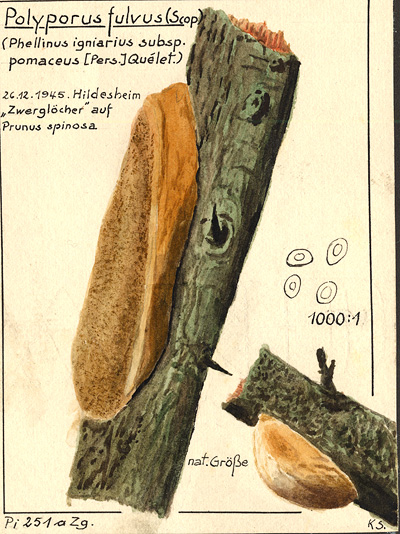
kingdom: Fungi
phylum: Basidiomycota
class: Agaricomycetes
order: Polyporales
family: Polyporaceae
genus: Fomes
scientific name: Fomes fulvus
